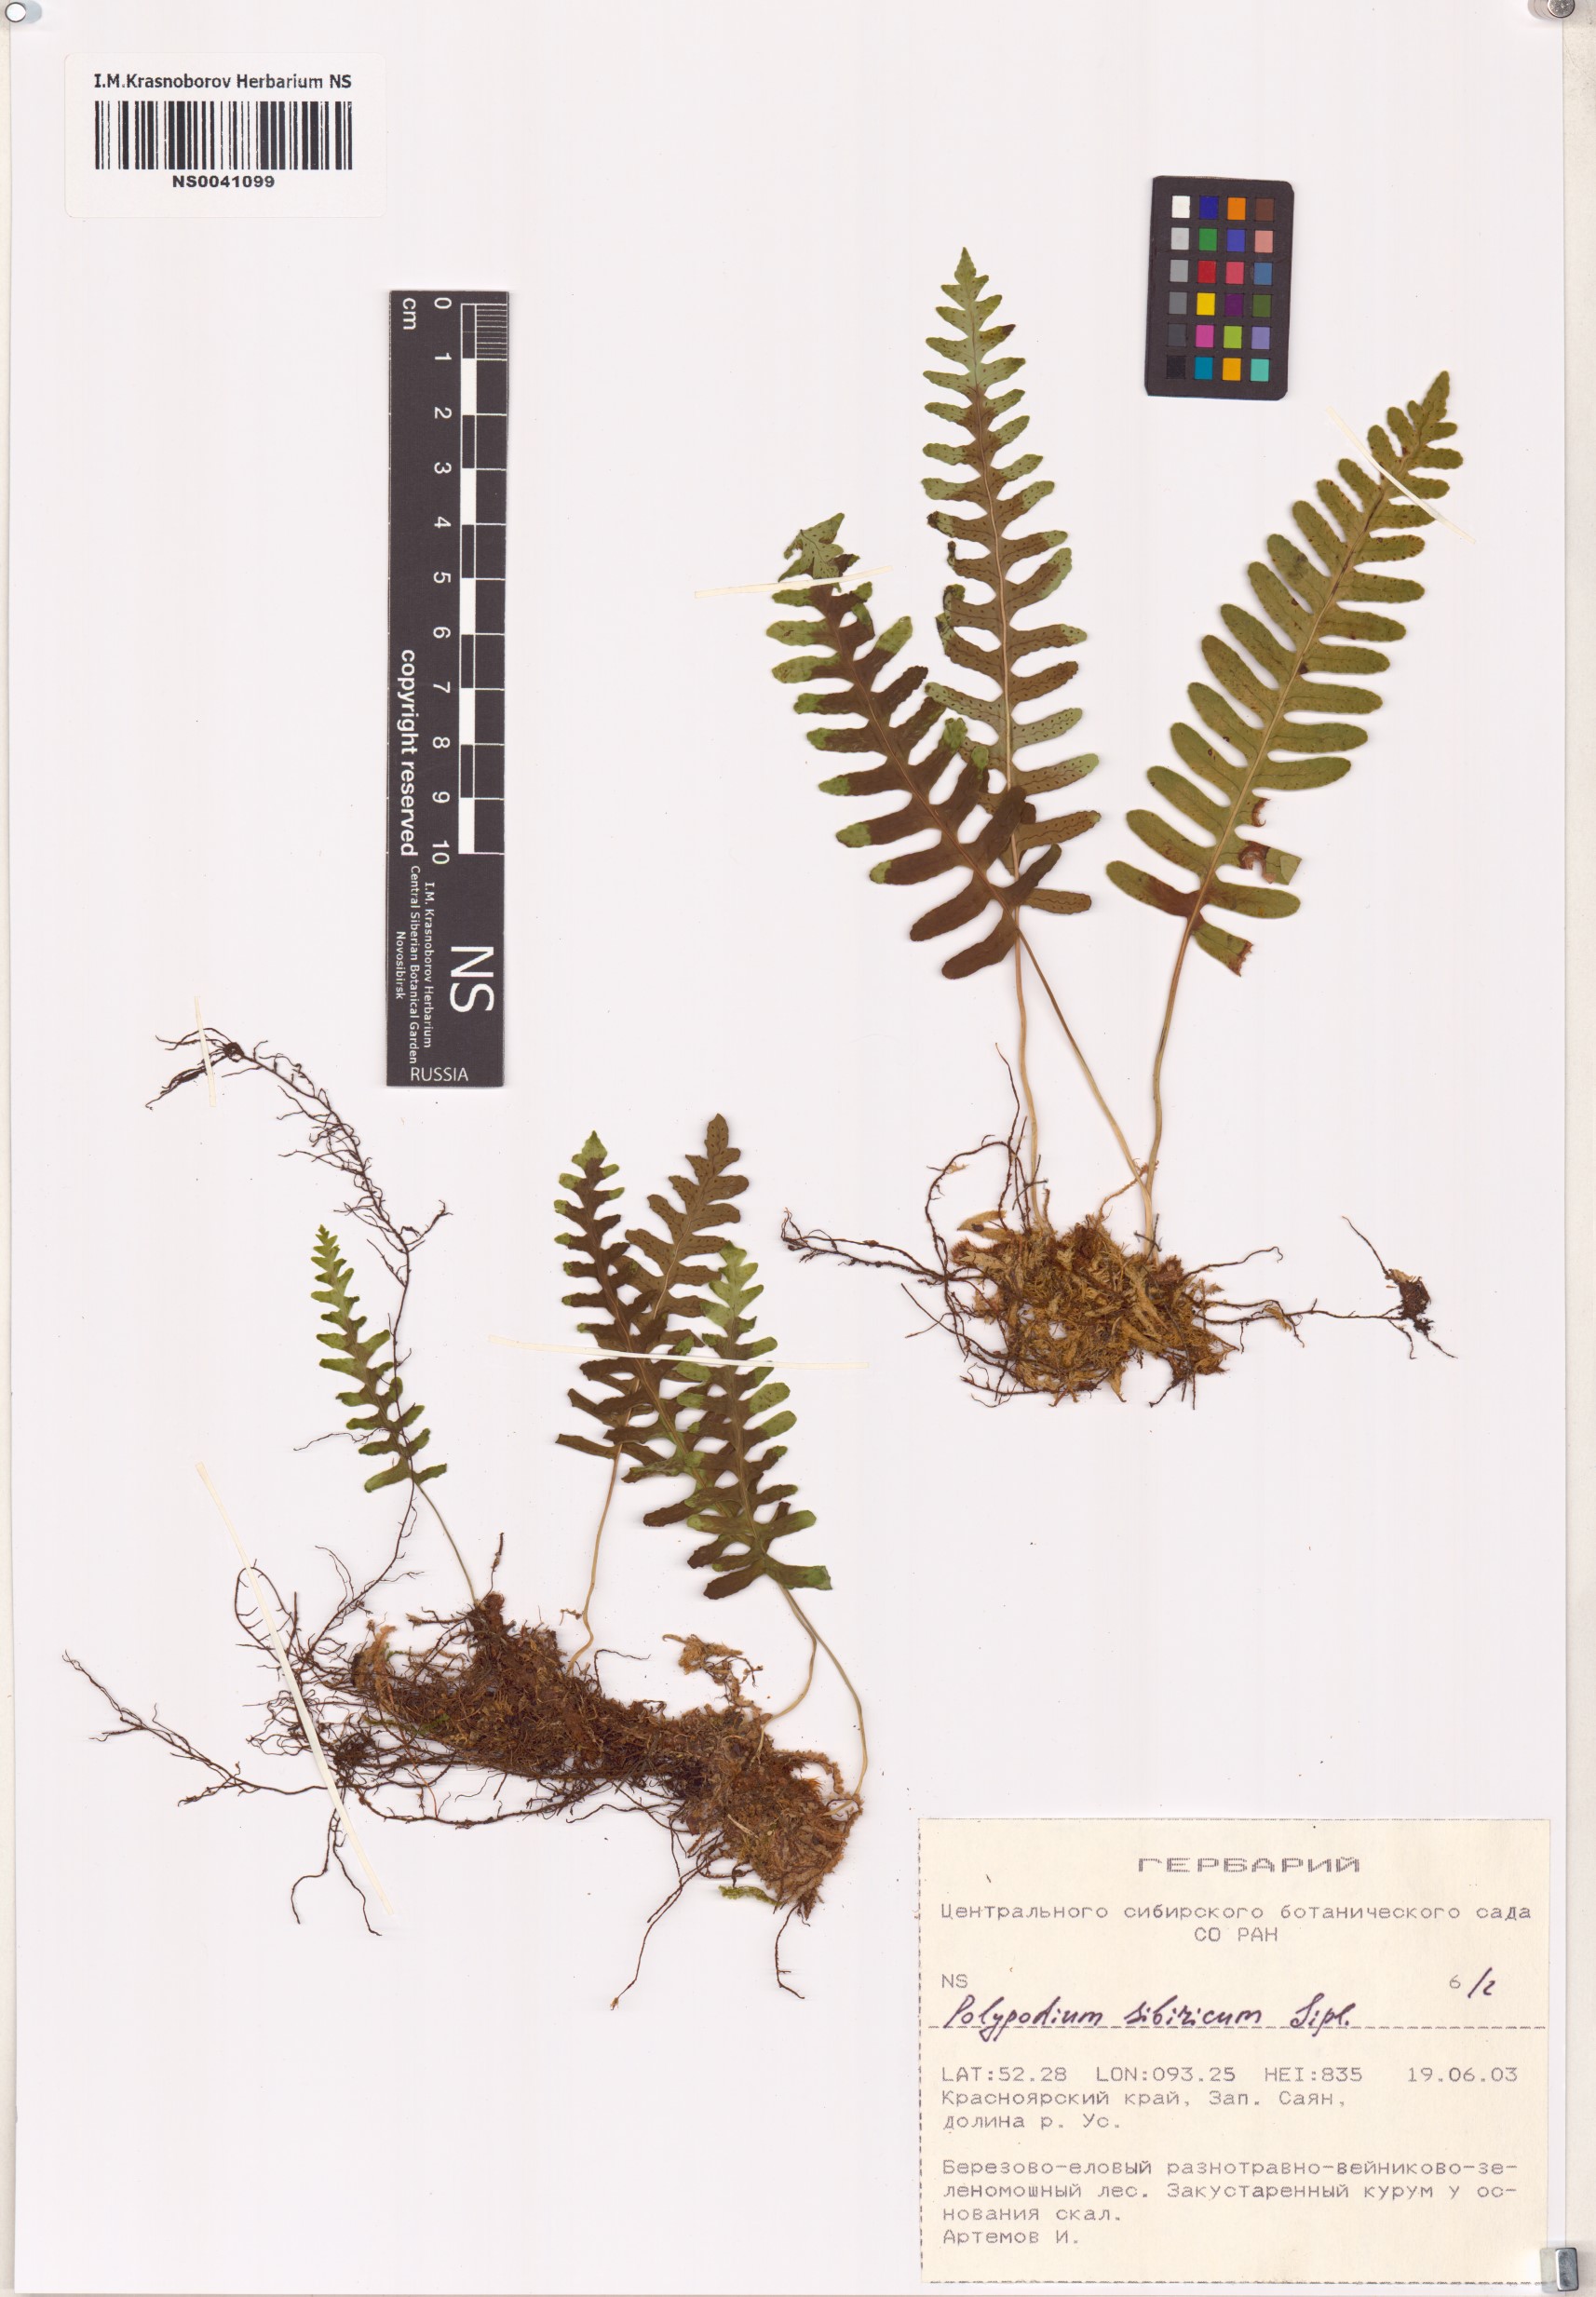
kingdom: Plantae
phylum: Tracheophyta
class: Polypodiopsida
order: Polypodiales
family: Polypodiaceae
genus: Polypodium
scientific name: Polypodium sibiricum
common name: Siberian polypody
